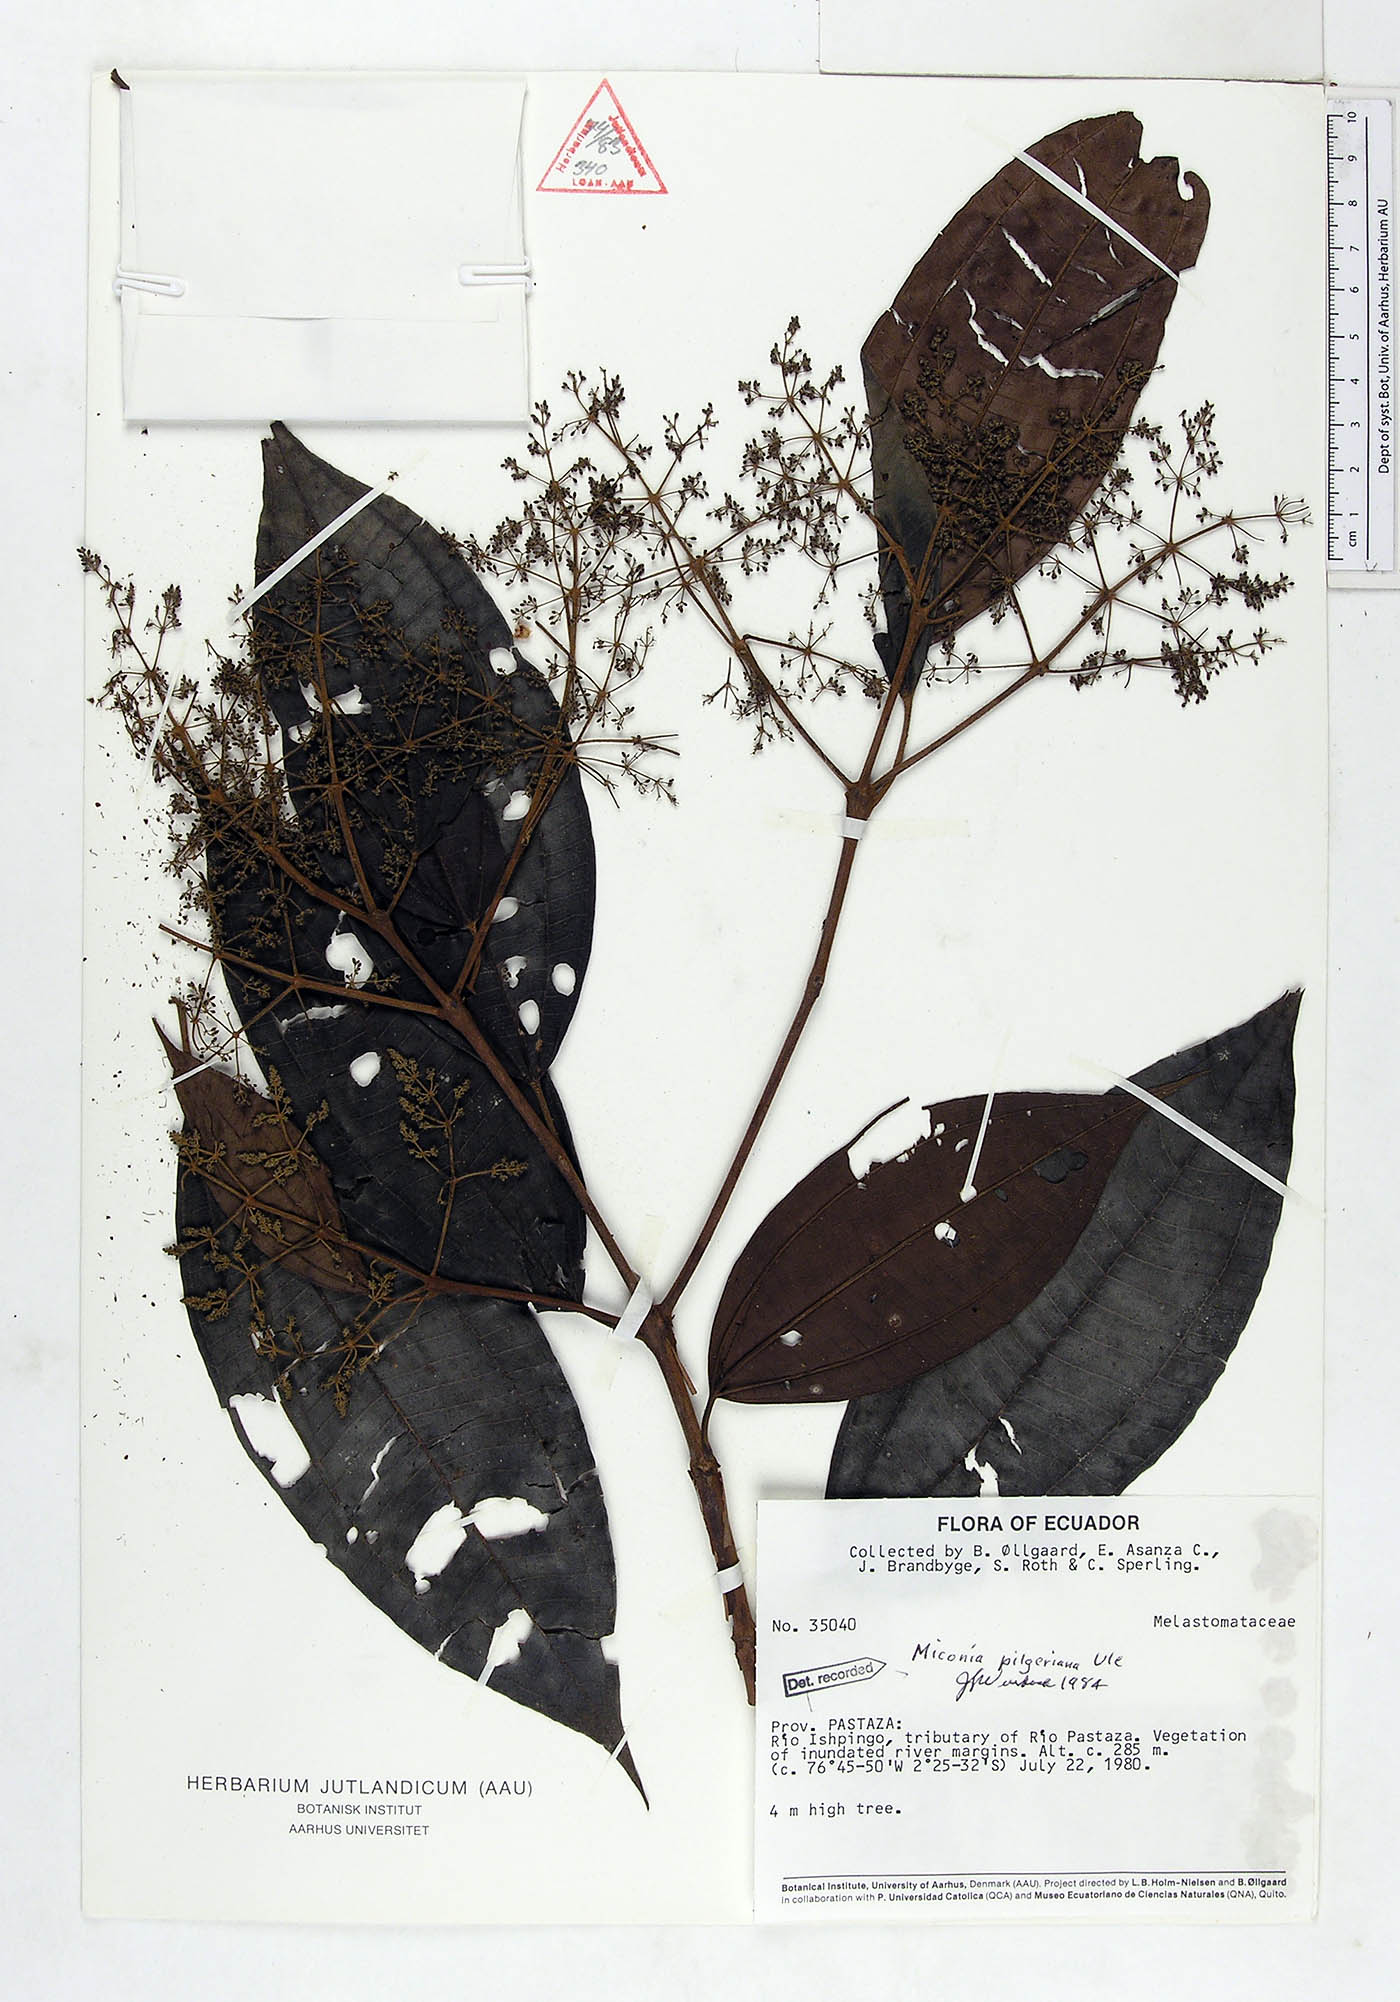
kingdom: Plantae
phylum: Tracheophyta
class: Magnoliopsida
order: Myrtales
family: Melastomataceae
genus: Miconia
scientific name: Miconia dolichorrhyncha
